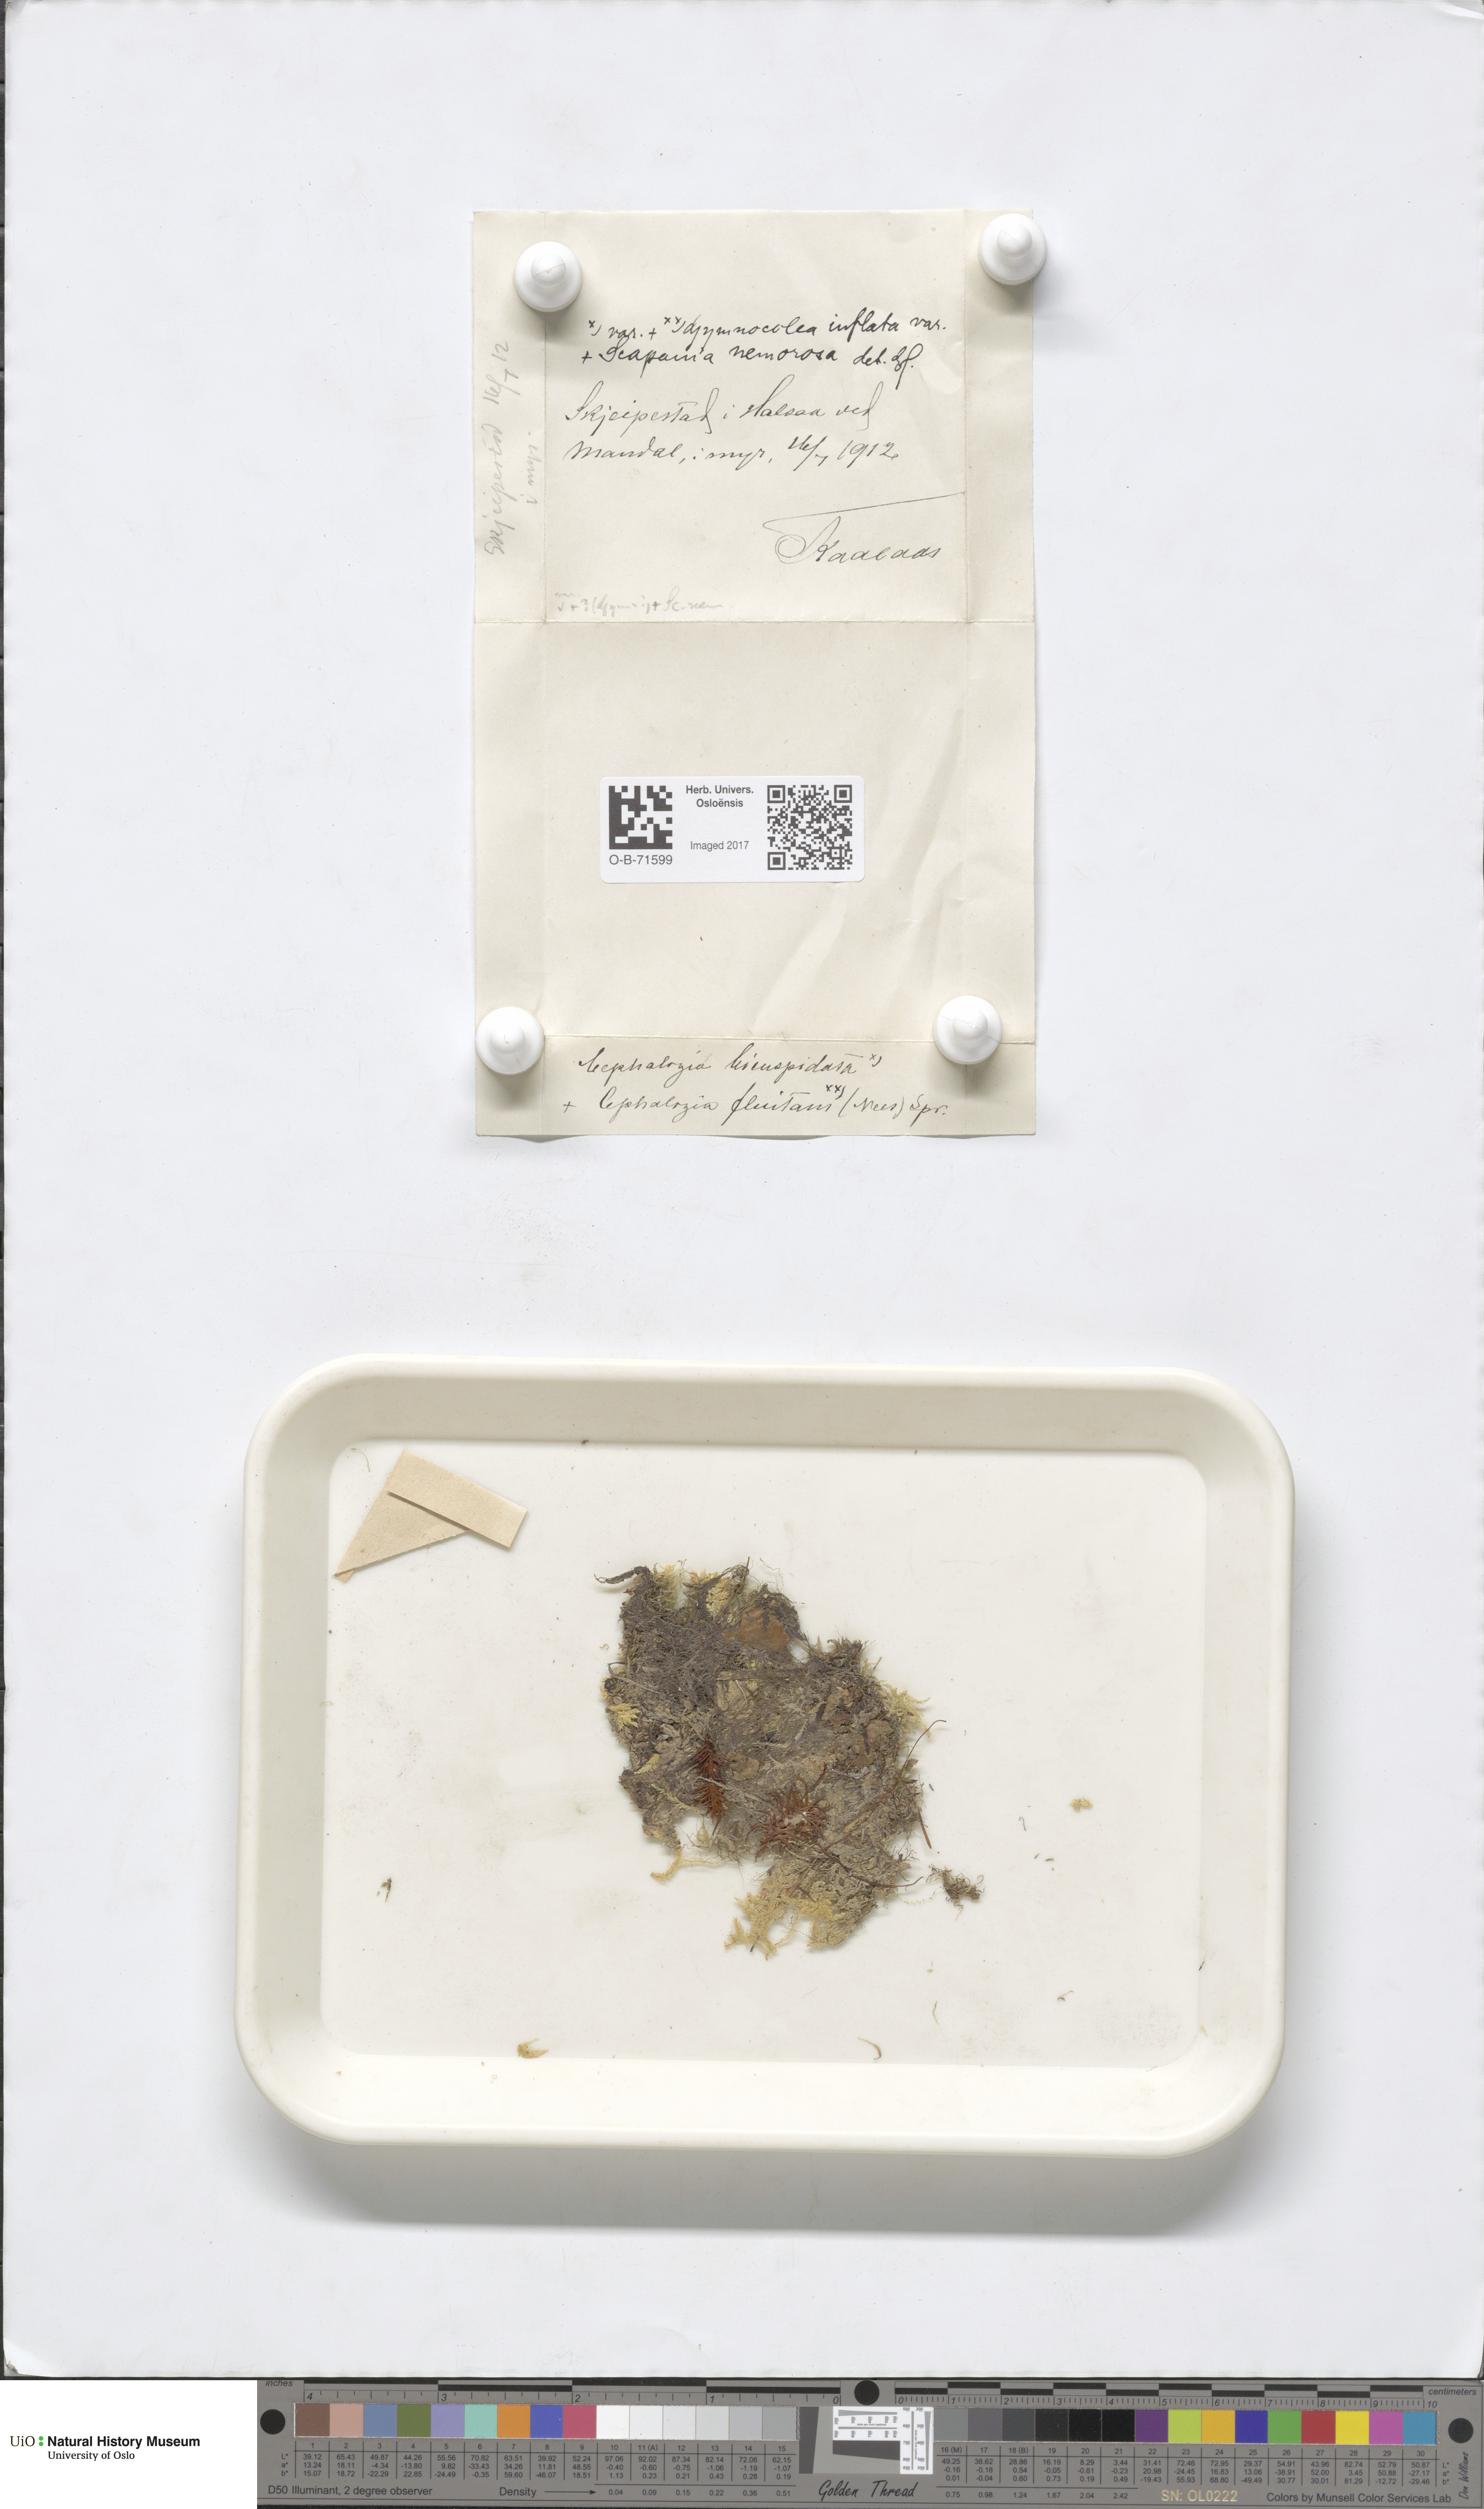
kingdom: Plantae
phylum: Marchantiophyta
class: Jungermanniopsida
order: Jungermanniales
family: Cephaloziaceae
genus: Cephalozia
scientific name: Cephalozia bicuspidata
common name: Two-horned pincerwort
